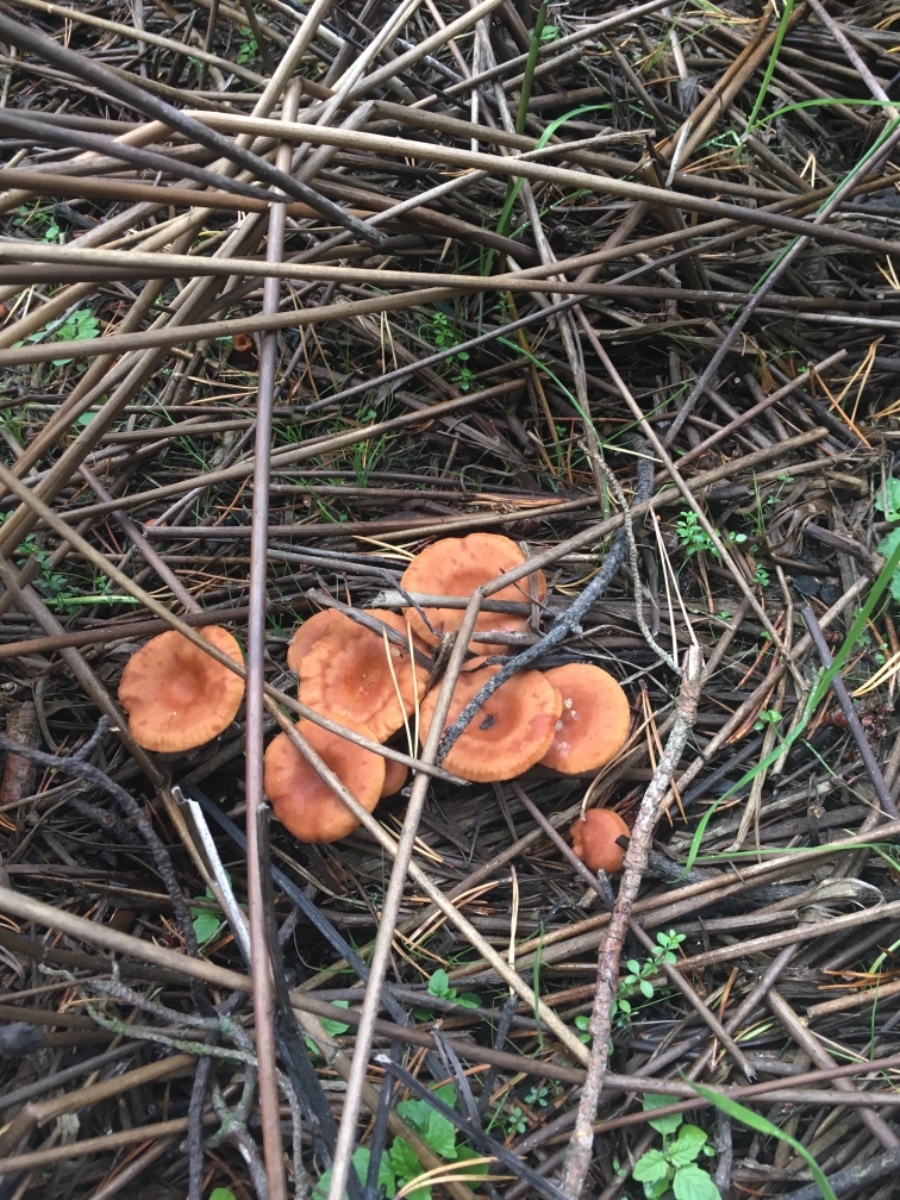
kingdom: Fungi
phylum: Basidiomycota
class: Agaricomycetes
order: Russulales
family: Russulaceae
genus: Lactarius
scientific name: Lactarius aurantiacus
